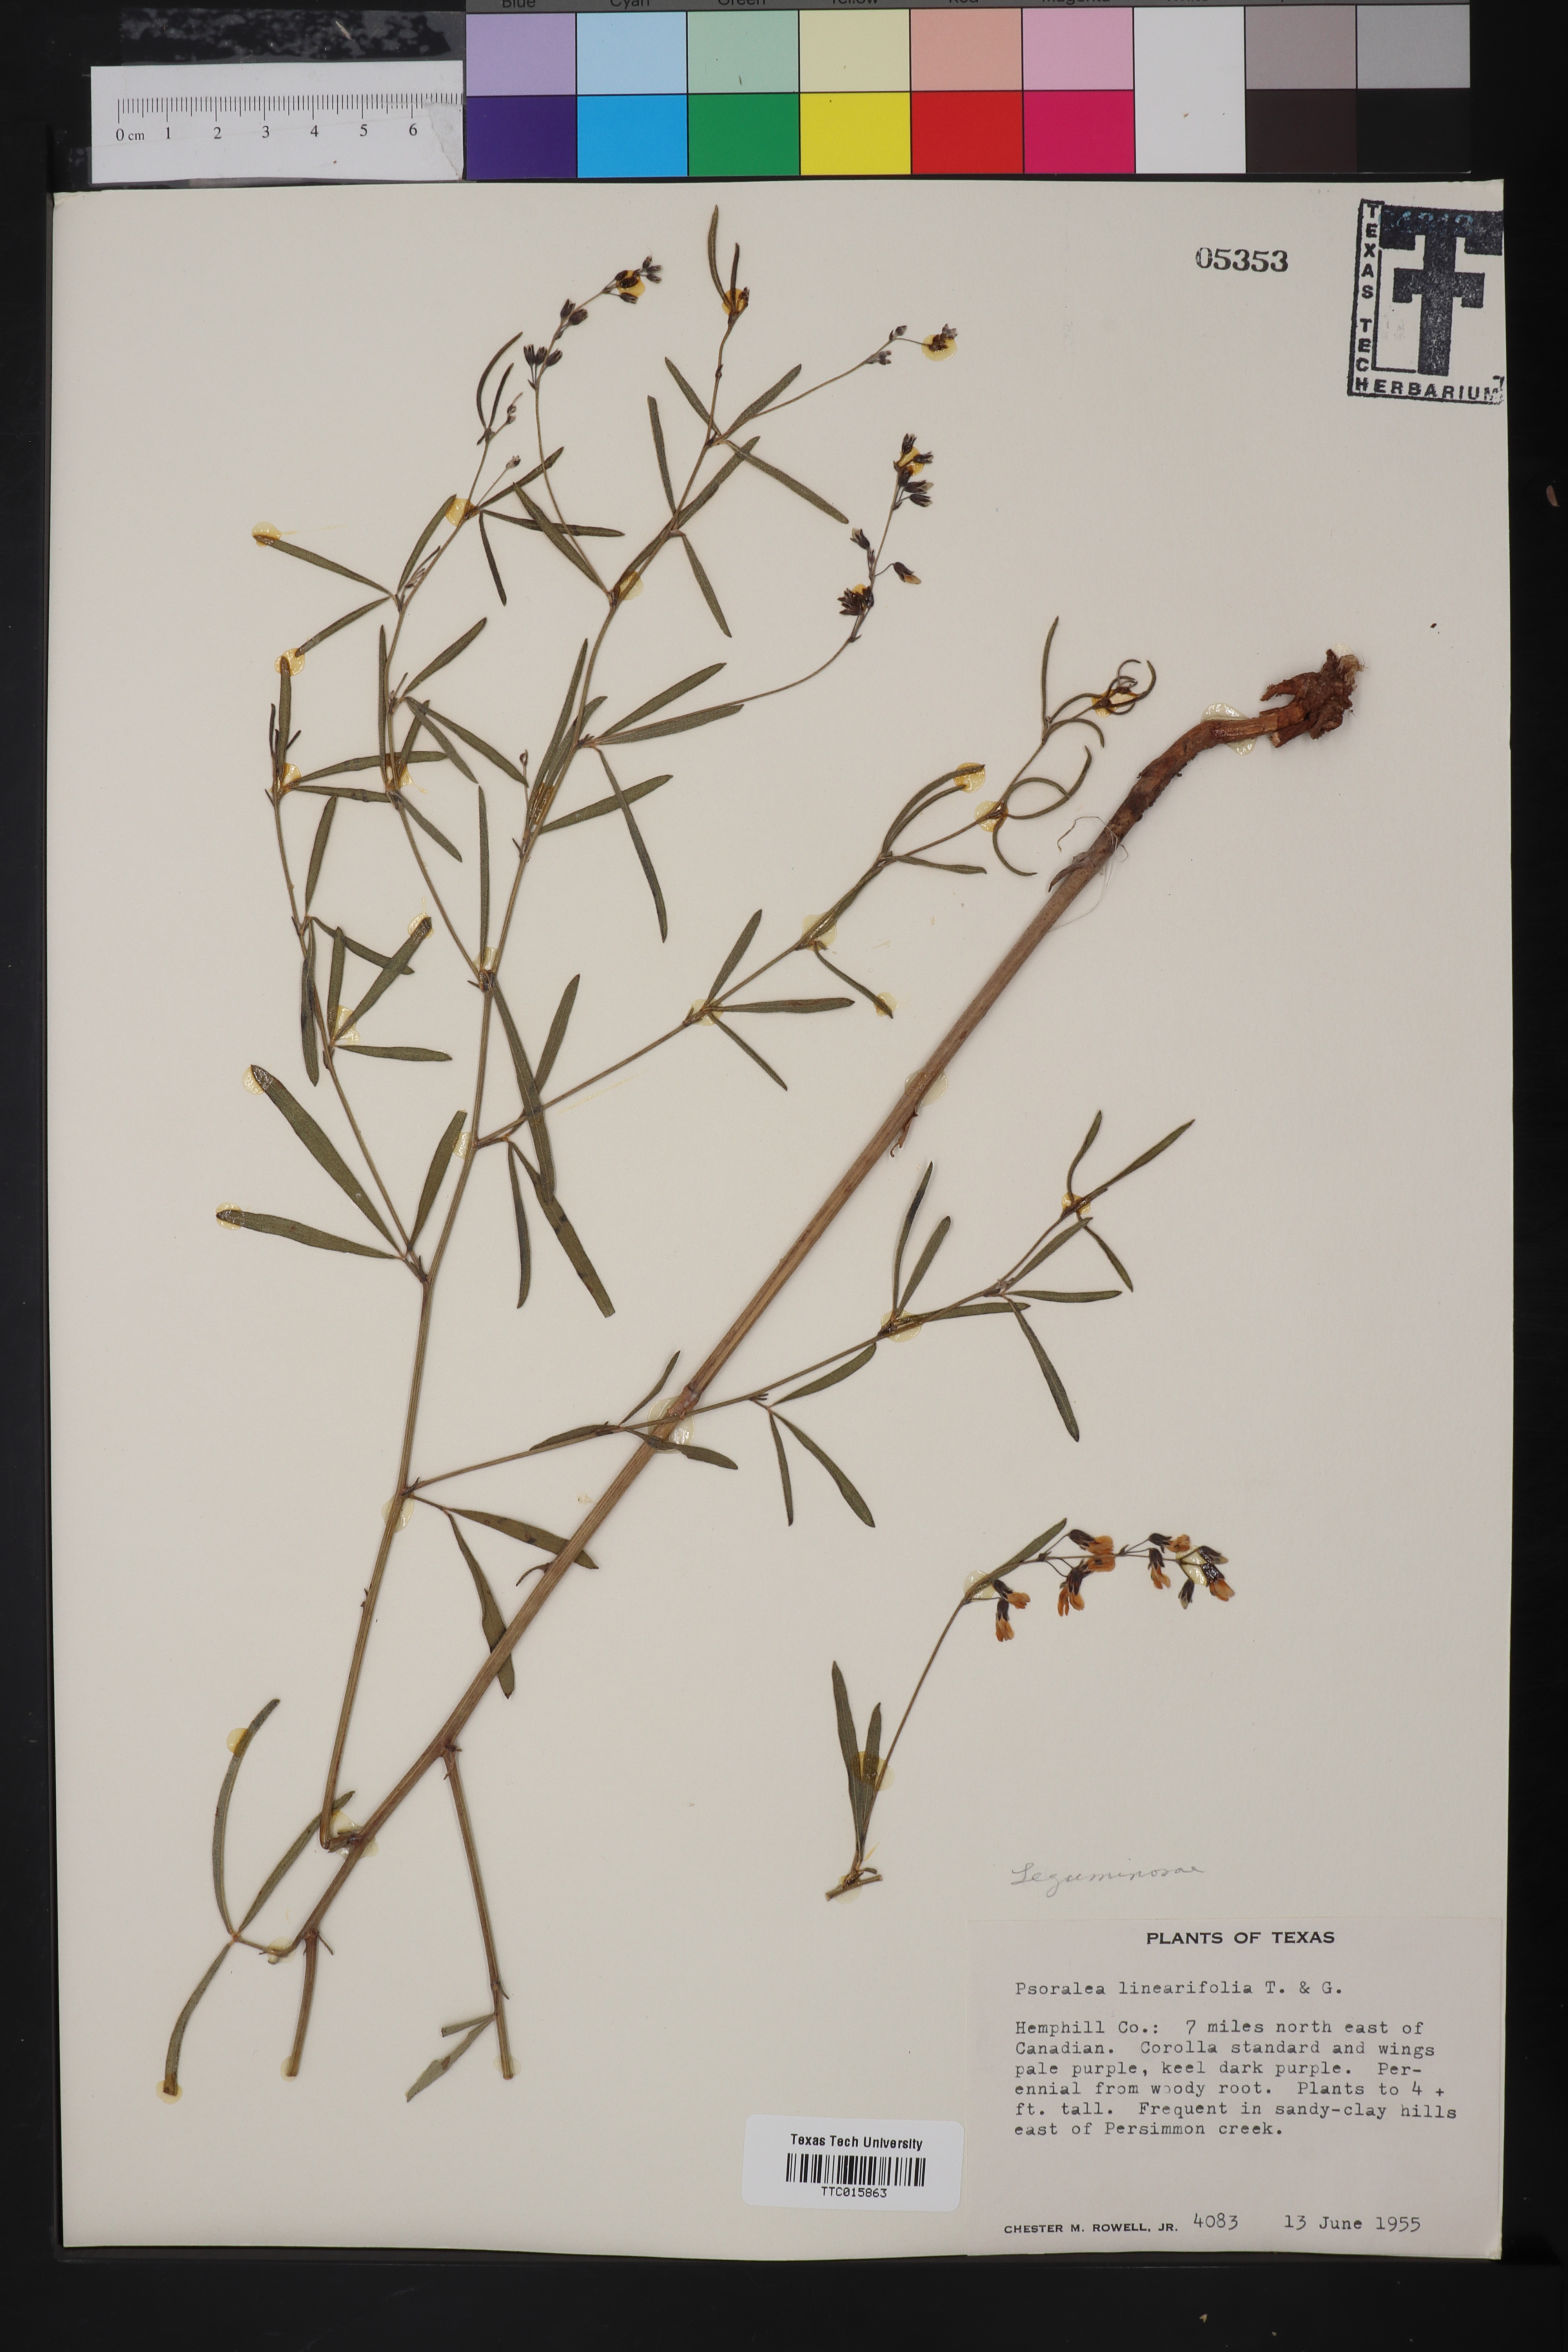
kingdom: Plantae
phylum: Tracheophyta
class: Magnoliopsida
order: Fabales
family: Fabaceae
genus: Pediomelum
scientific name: Pediomelum linearifolium
